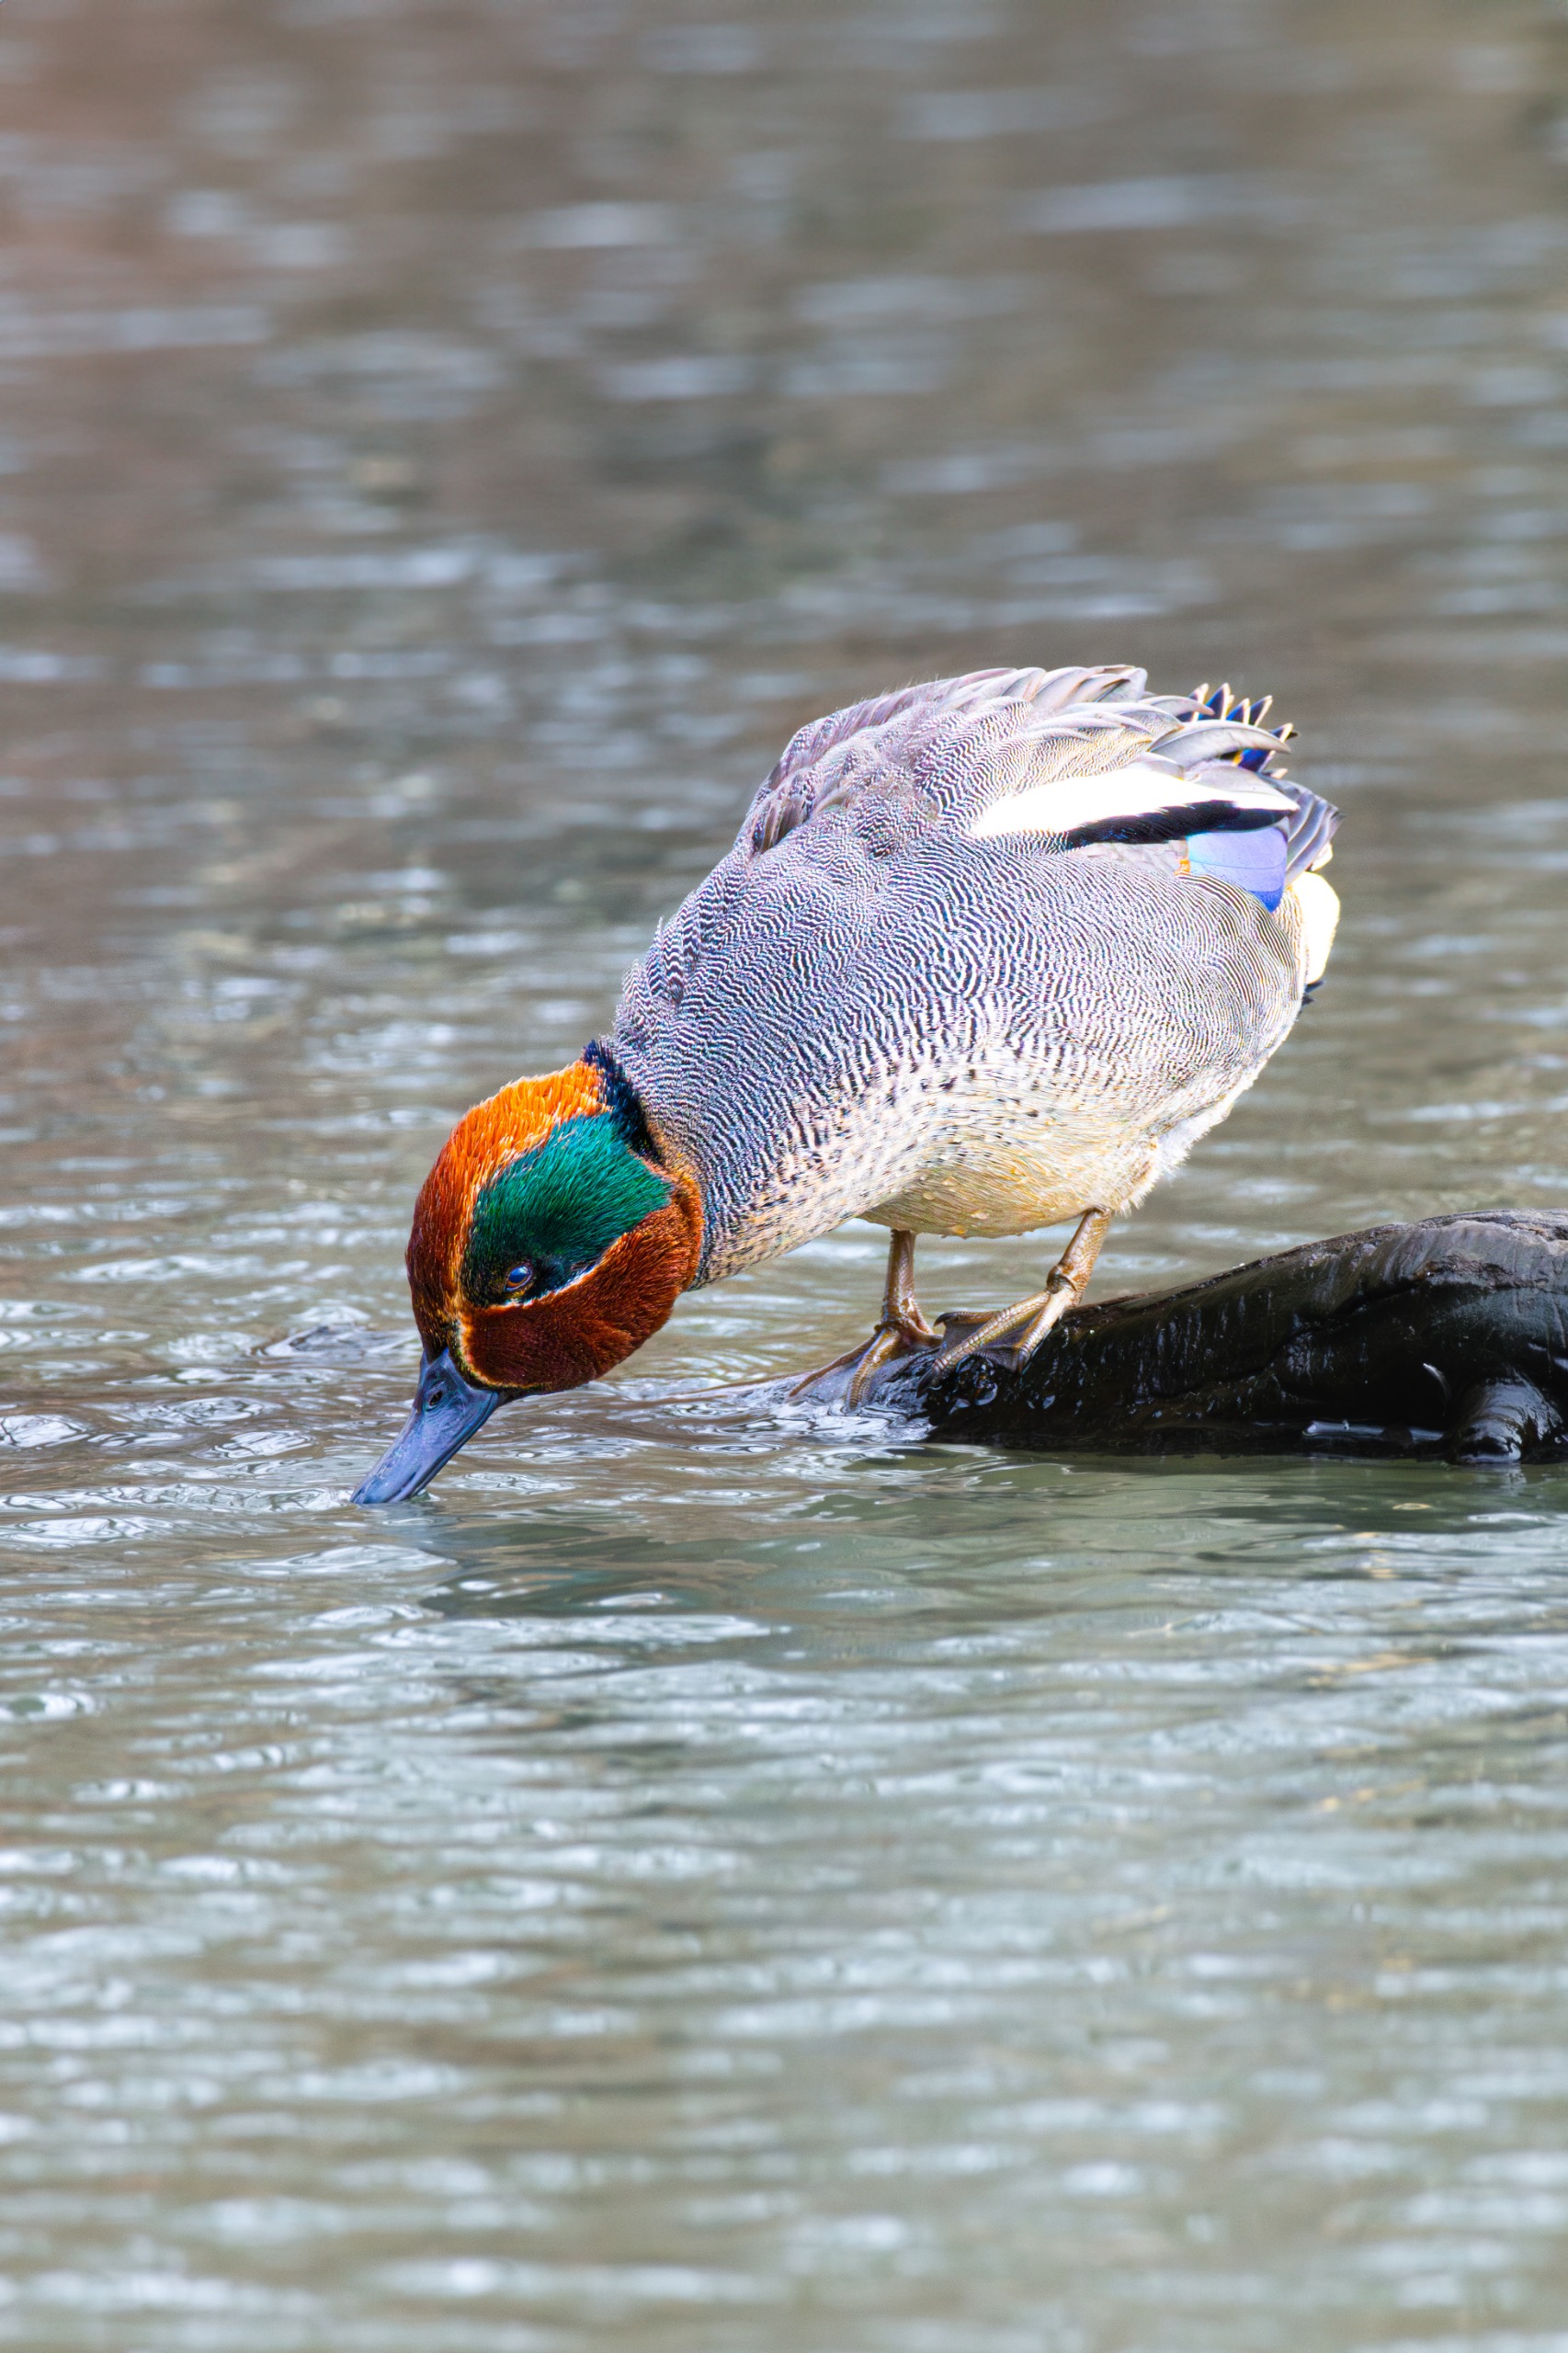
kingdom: Animalia
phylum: Chordata
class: Aves
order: Anseriformes
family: Anatidae
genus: Anas
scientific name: Anas crecca
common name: Krikand
